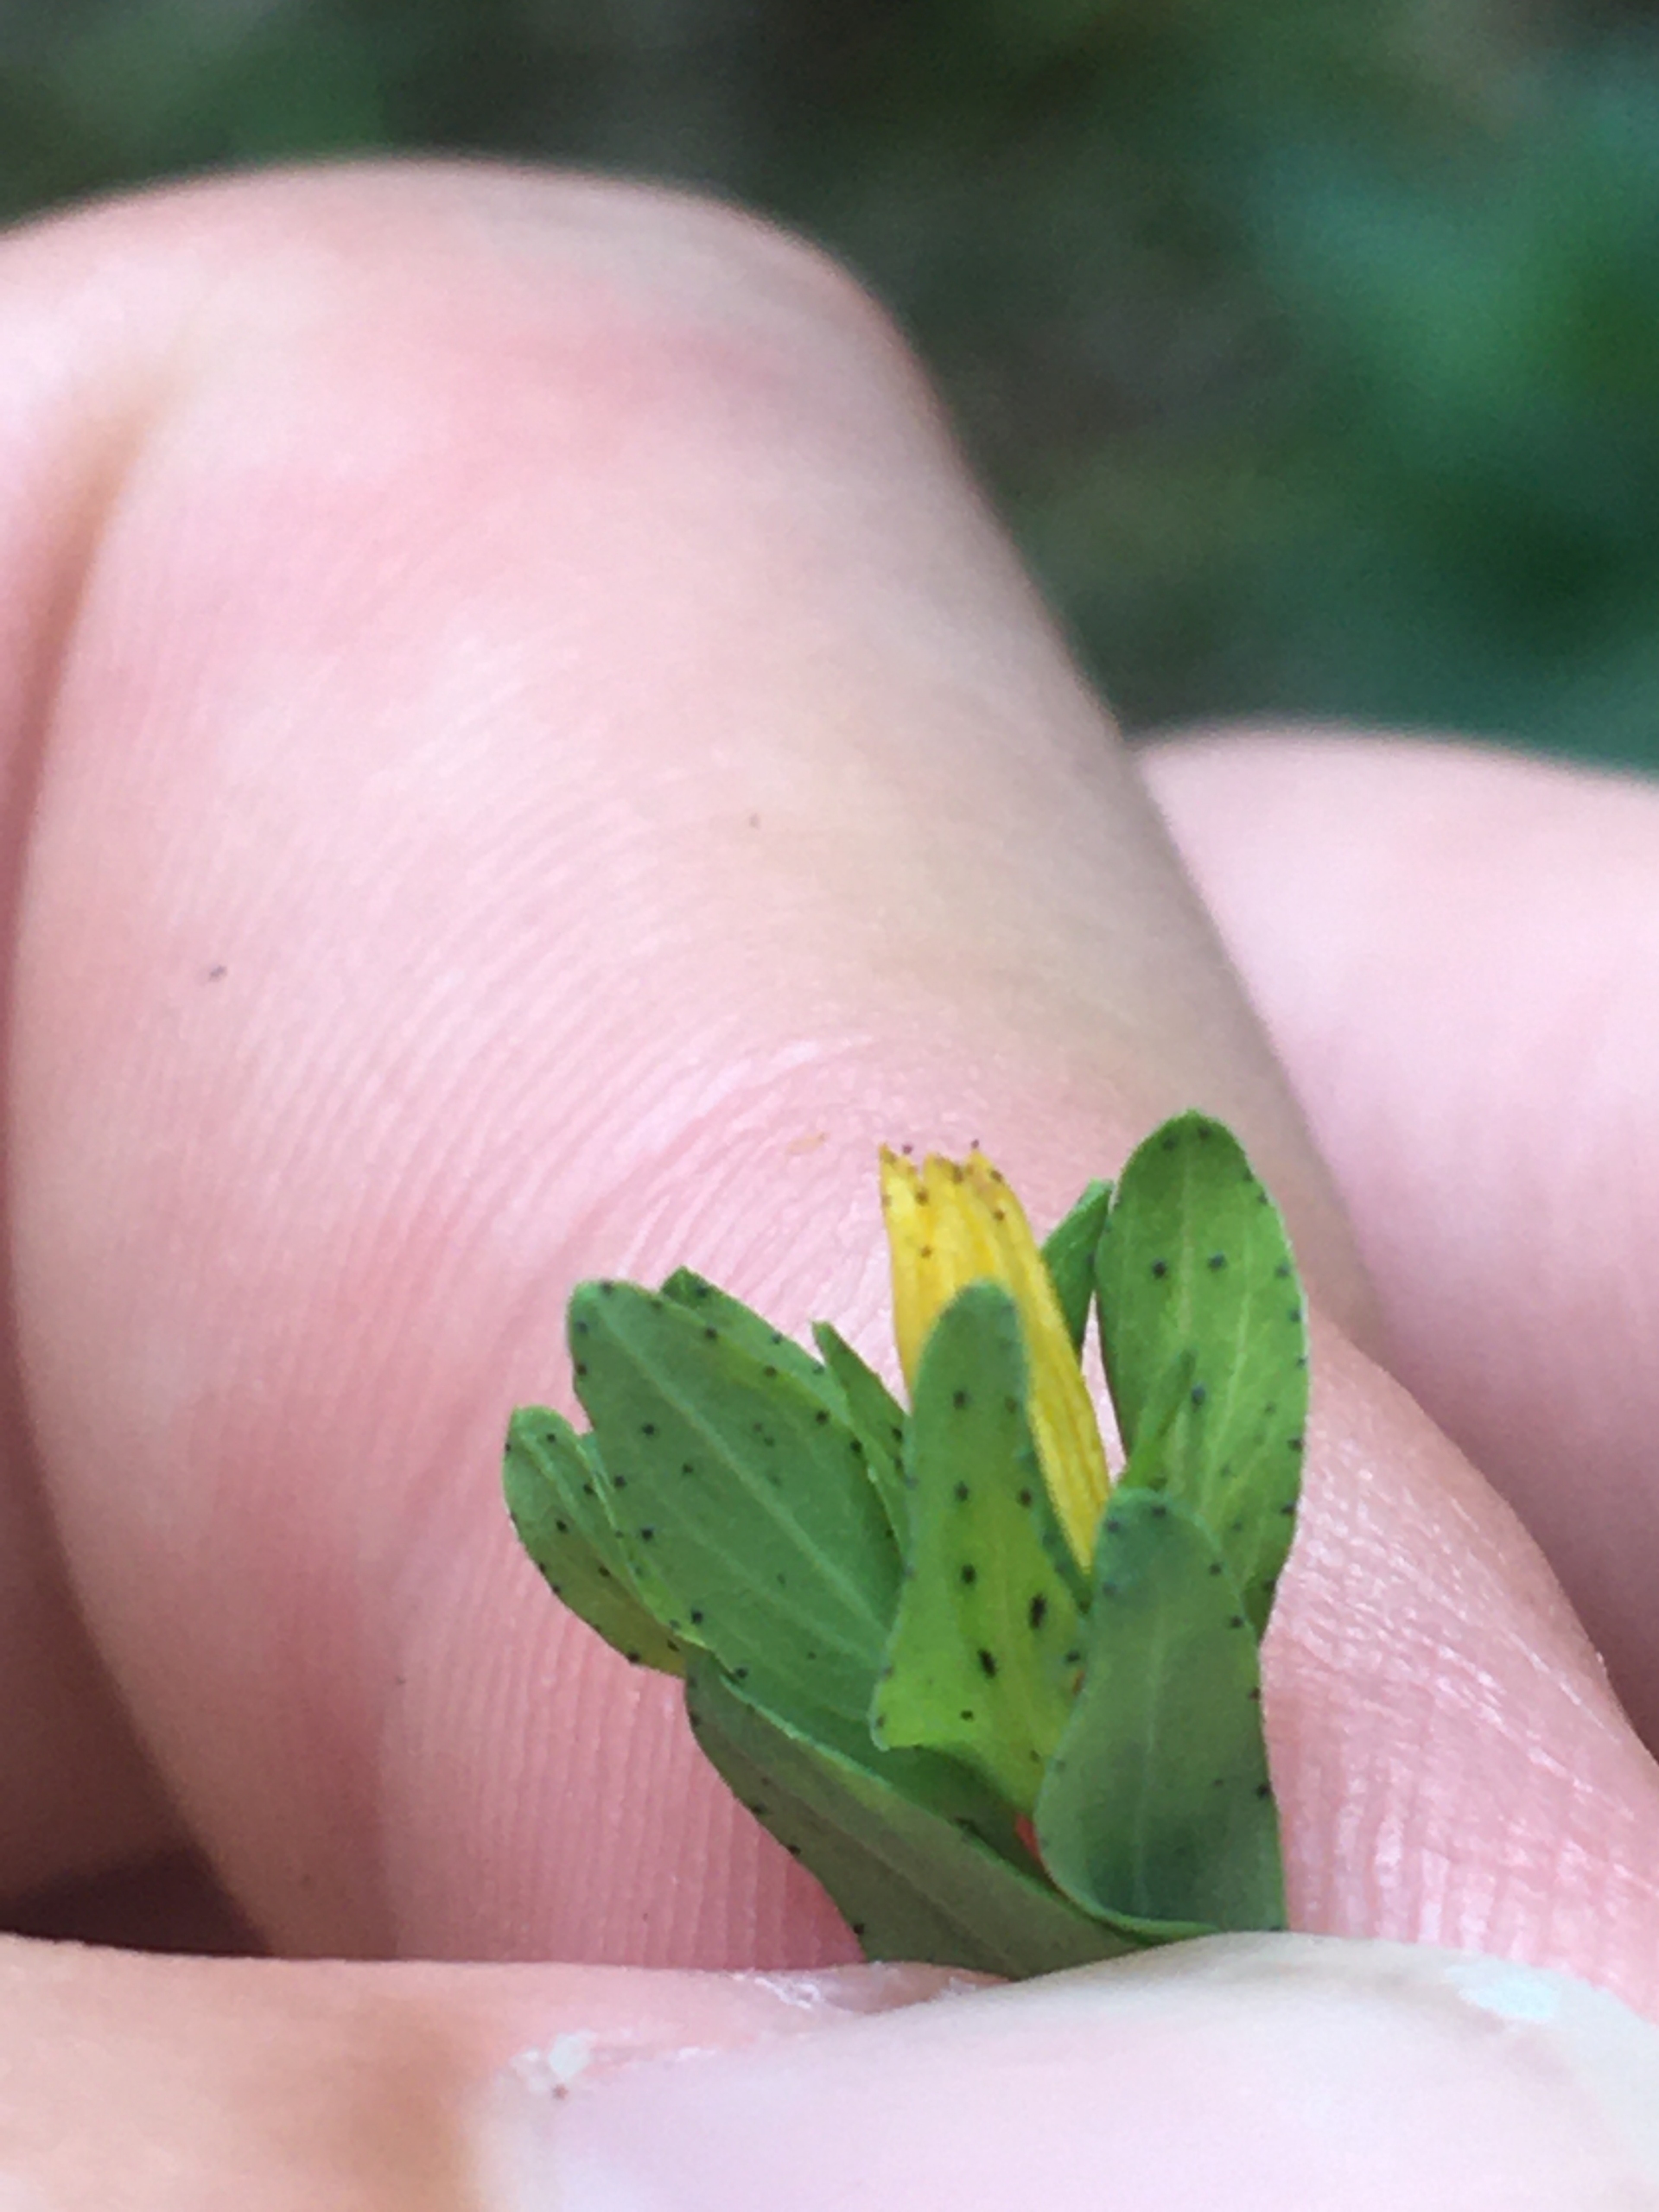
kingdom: Plantae
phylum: Tracheophyta
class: Magnoliopsida
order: Malpighiales
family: Hypericaceae
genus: Hypericum
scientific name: Hypericum humifusum
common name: Dværg-perikon
